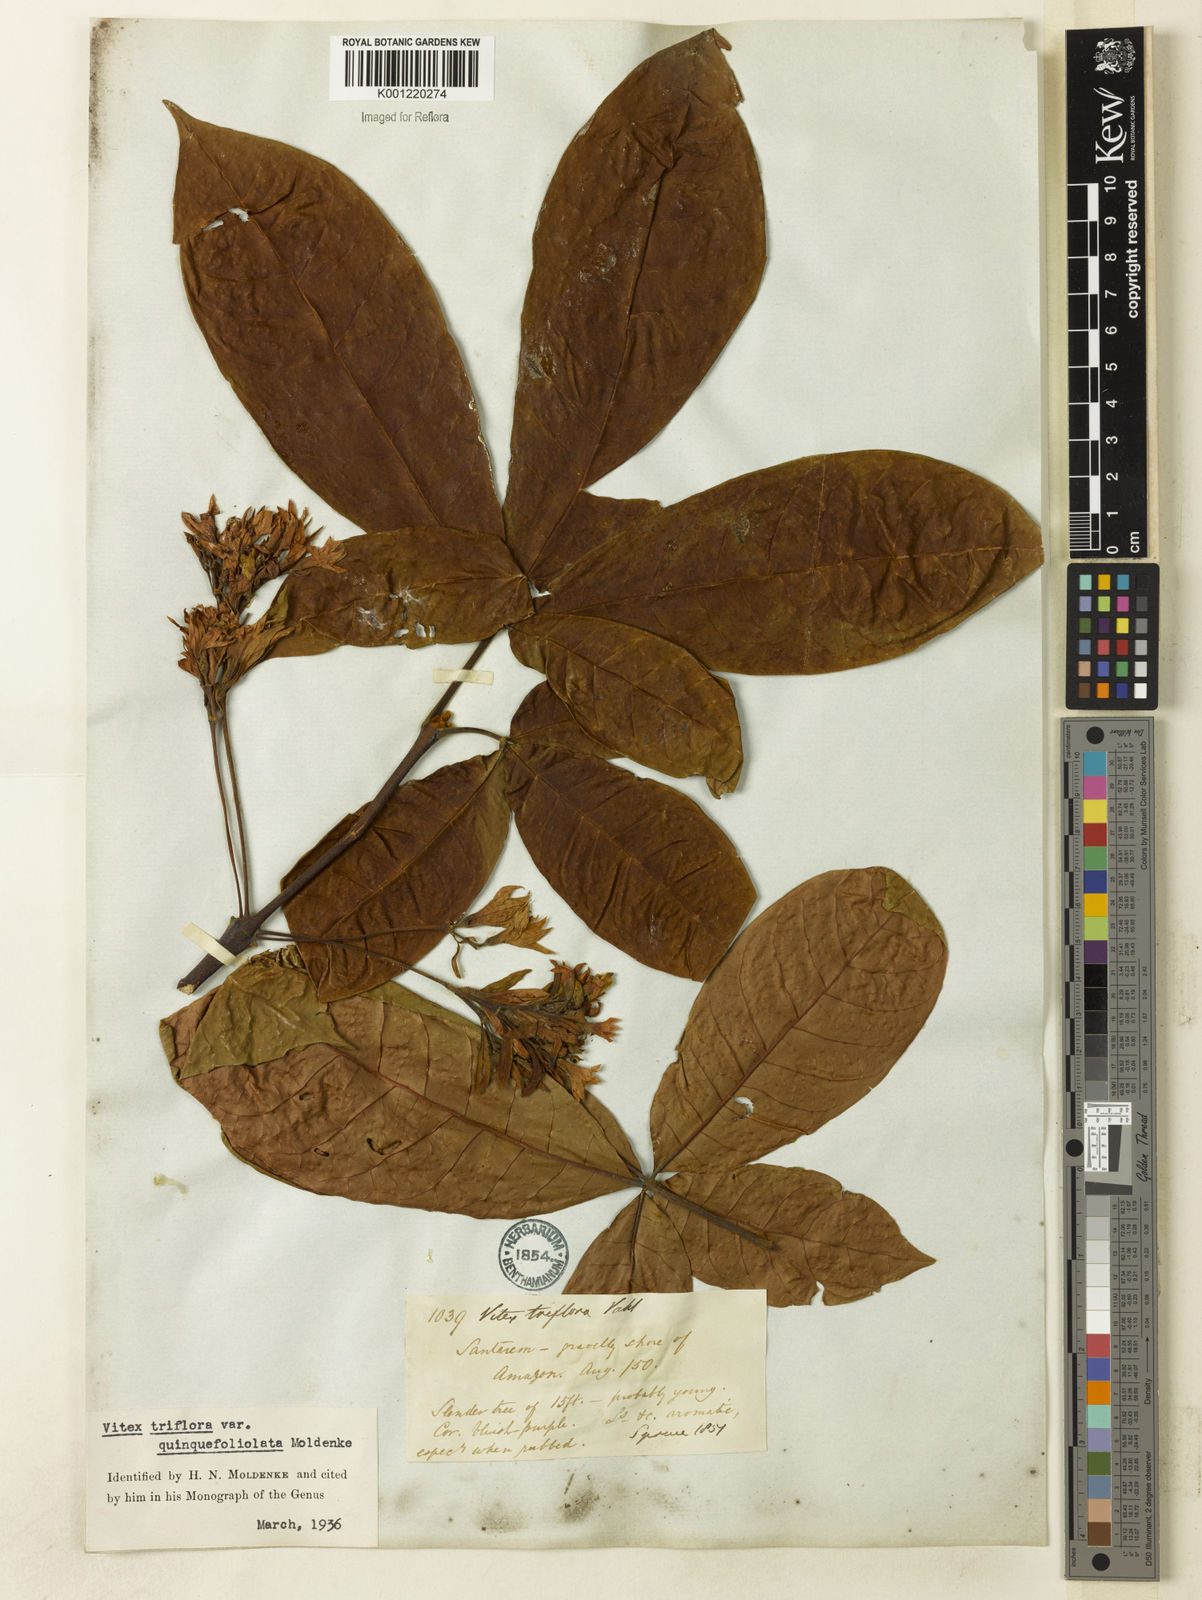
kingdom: Plantae
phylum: Tracheophyta
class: Magnoliopsida
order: Lamiales
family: Lamiaceae
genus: Vitex
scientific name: Vitex triflora
